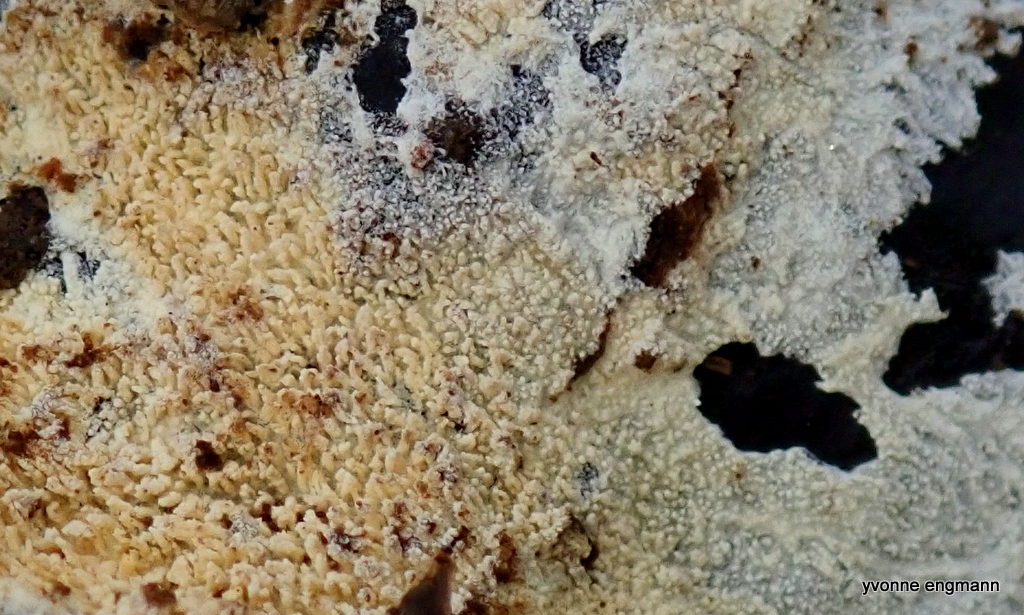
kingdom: Fungi
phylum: Basidiomycota
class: Agaricomycetes
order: Corticiales
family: Corticiaceae
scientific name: Corticiaceae
